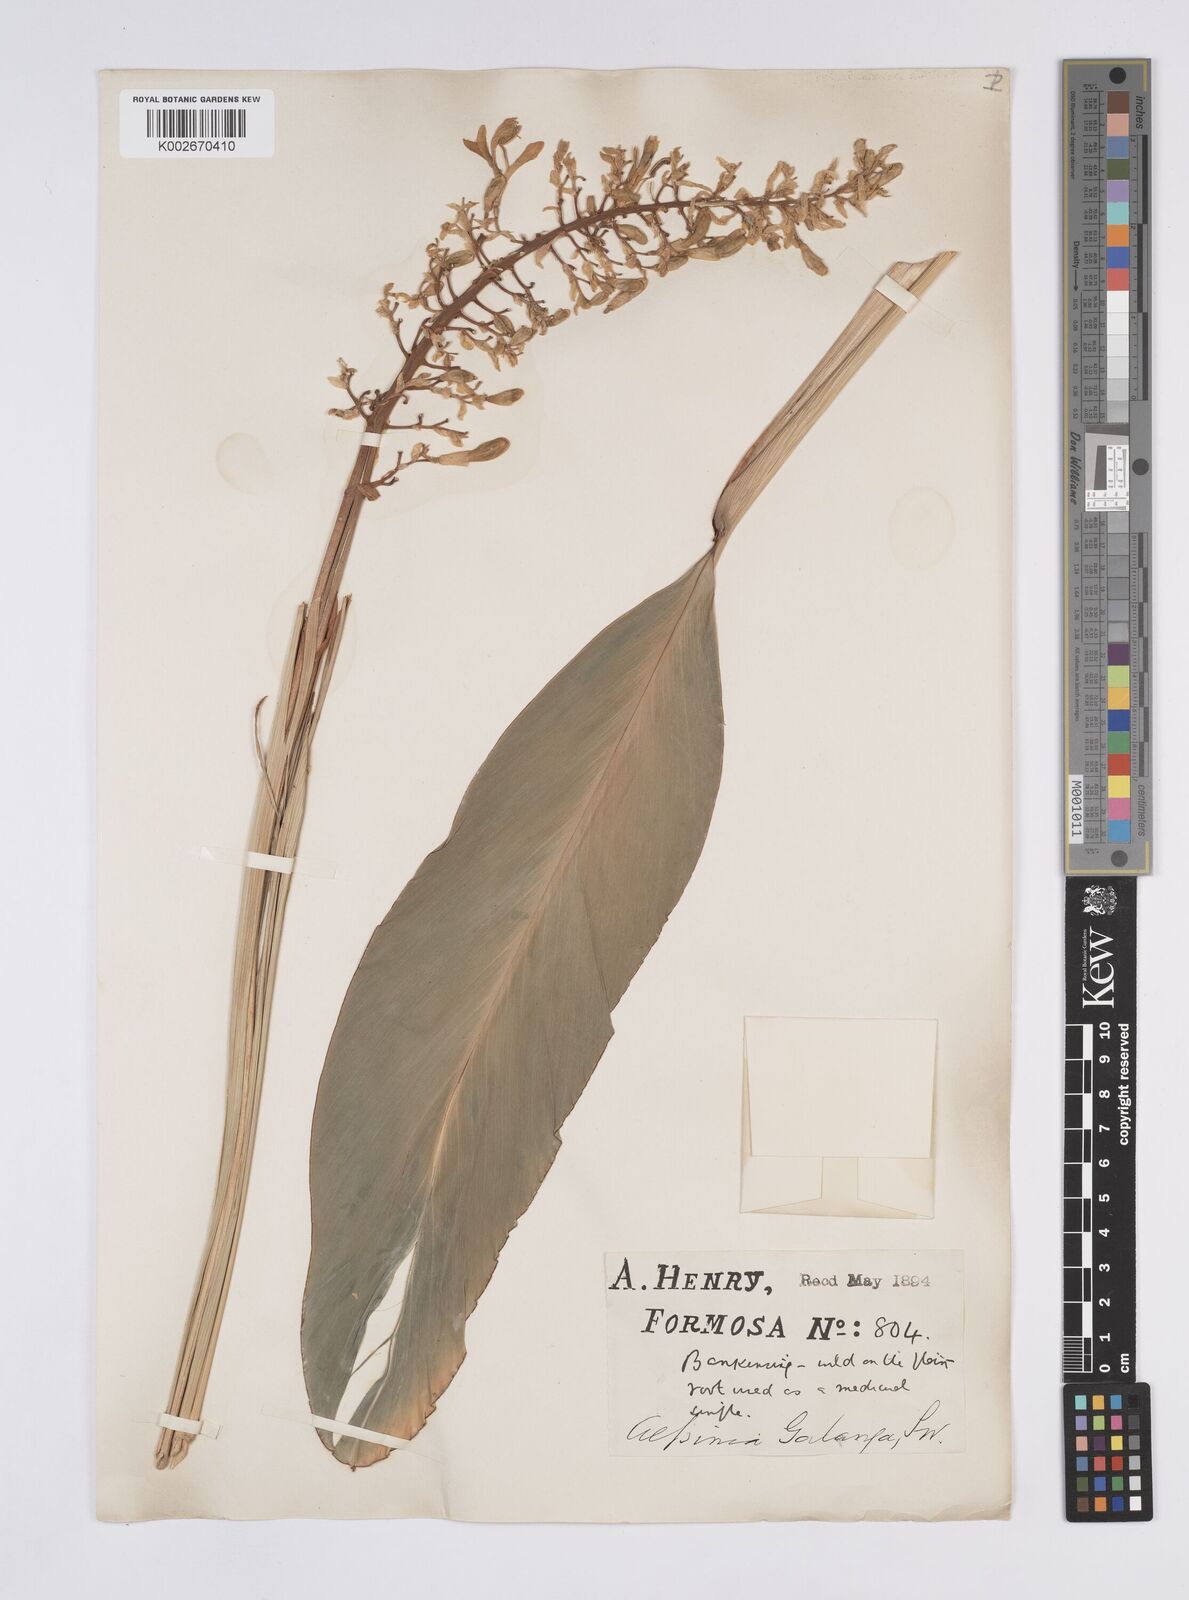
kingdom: Plantae
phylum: Tracheophyta
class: Liliopsida
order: Zingiberales
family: Zingiberaceae
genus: Alpinia
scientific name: Alpinia galanga
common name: Siamese-ginger
